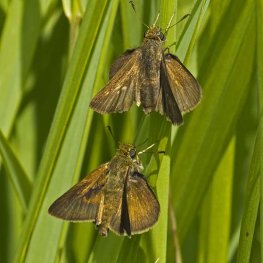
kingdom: Animalia
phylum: Arthropoda
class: Insecta
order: Lepidoptera
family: Hesperiidae
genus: Euphyes
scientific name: Euphyes vestris
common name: Dun Skipper
